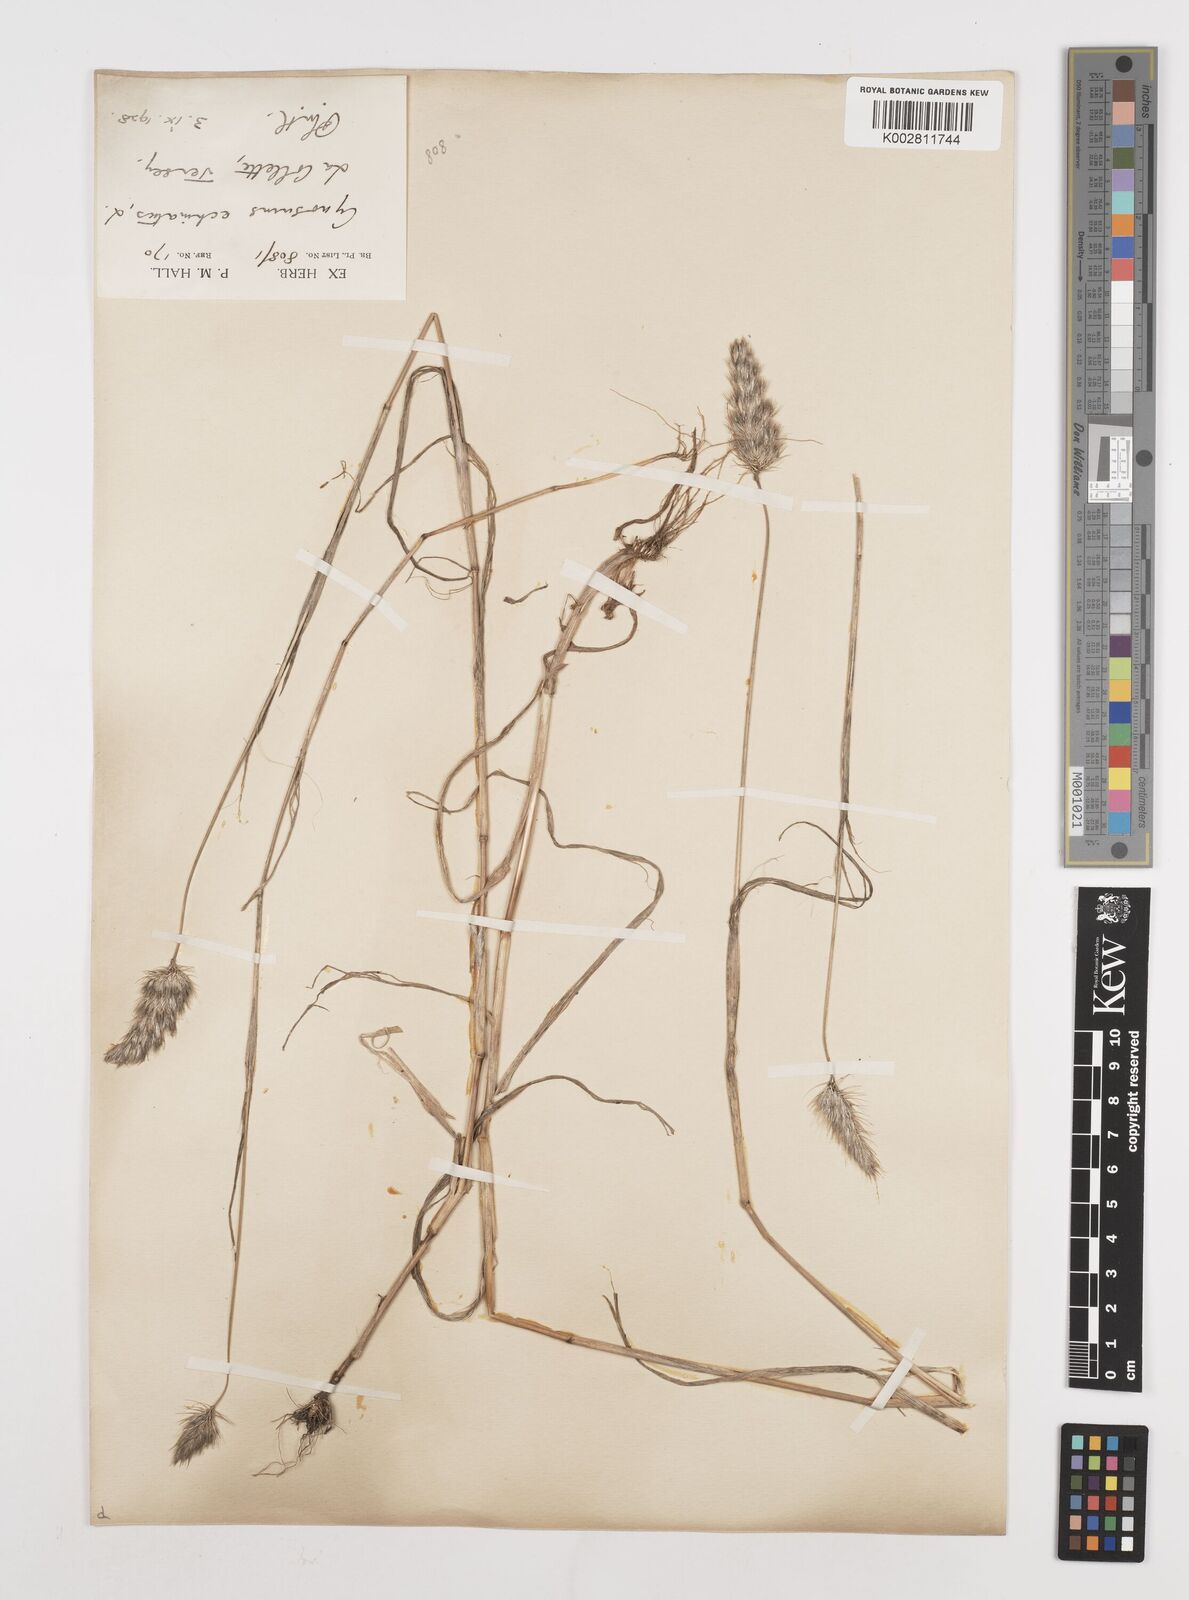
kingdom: Plantae
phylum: Tracheophyta
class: Liliopsida
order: Poales
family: Poaceae
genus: Cynosurus
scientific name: Cynosurus echinatus
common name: Rough dog's-tail
